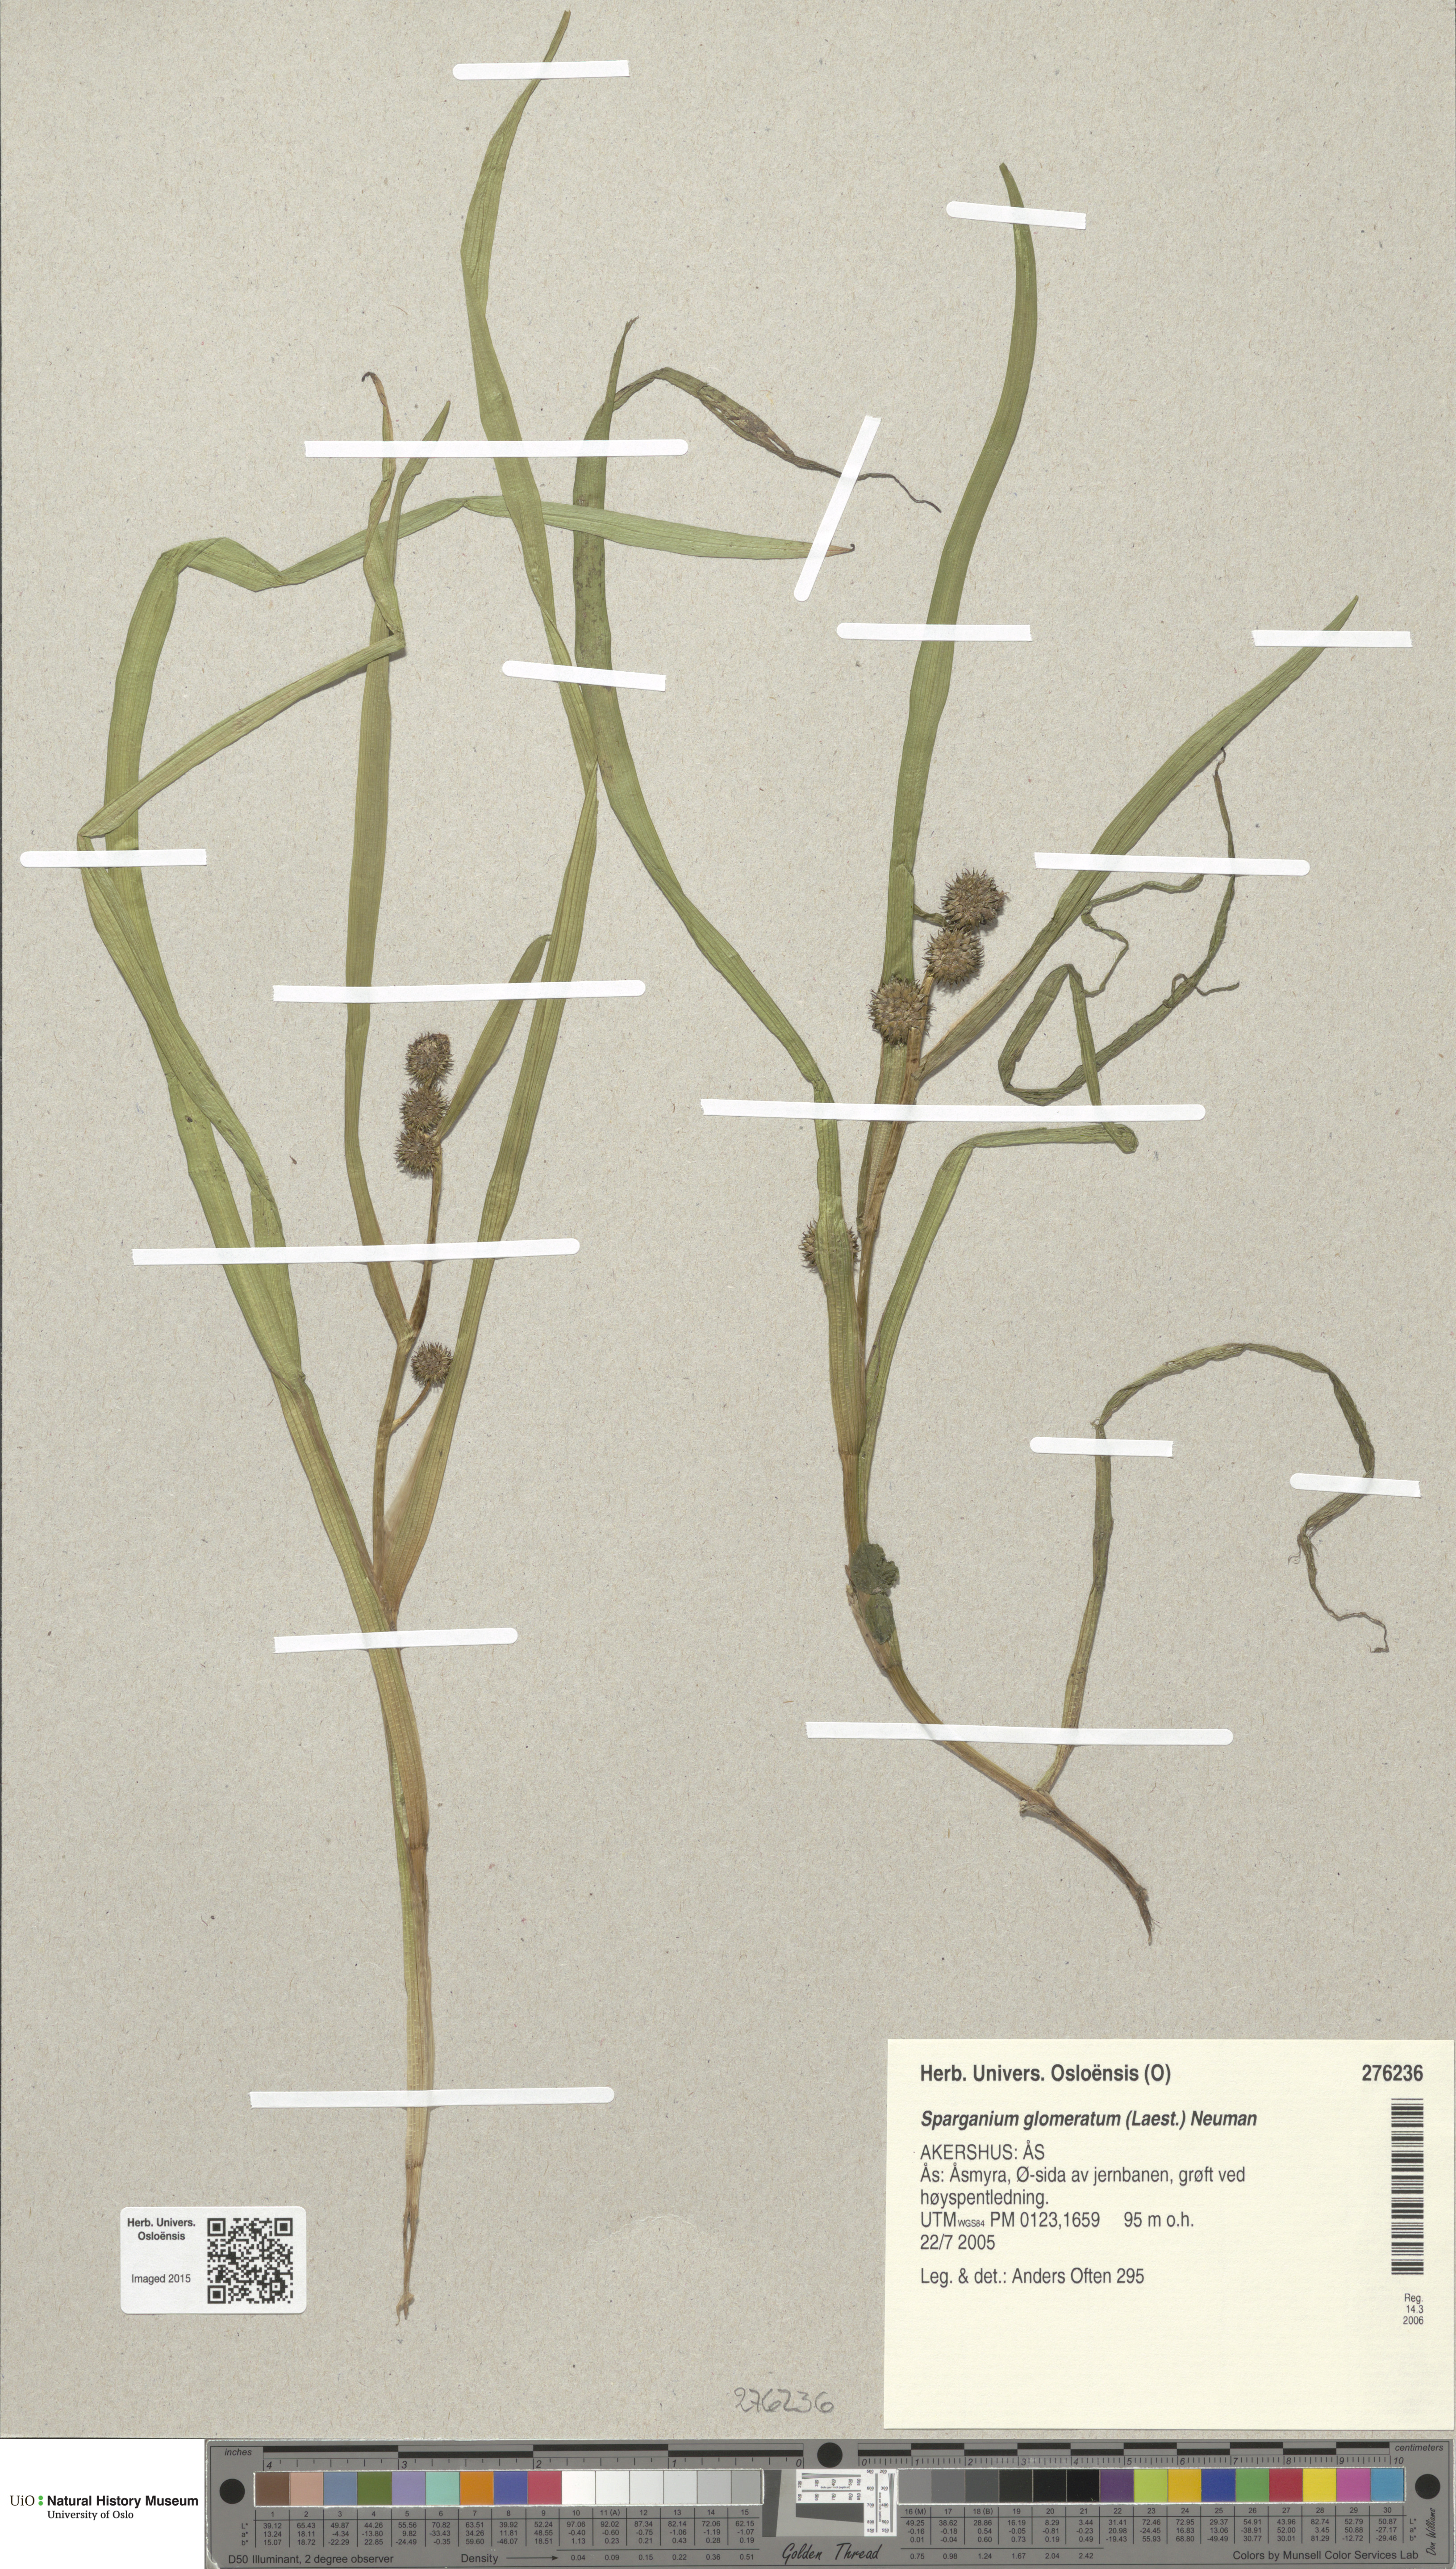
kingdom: Plantae
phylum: Tracheophyta
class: Liliopsida
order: Poales
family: Typhaceae
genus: Sparganium
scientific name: Sparganium glomeratum
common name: Clustered burreed
